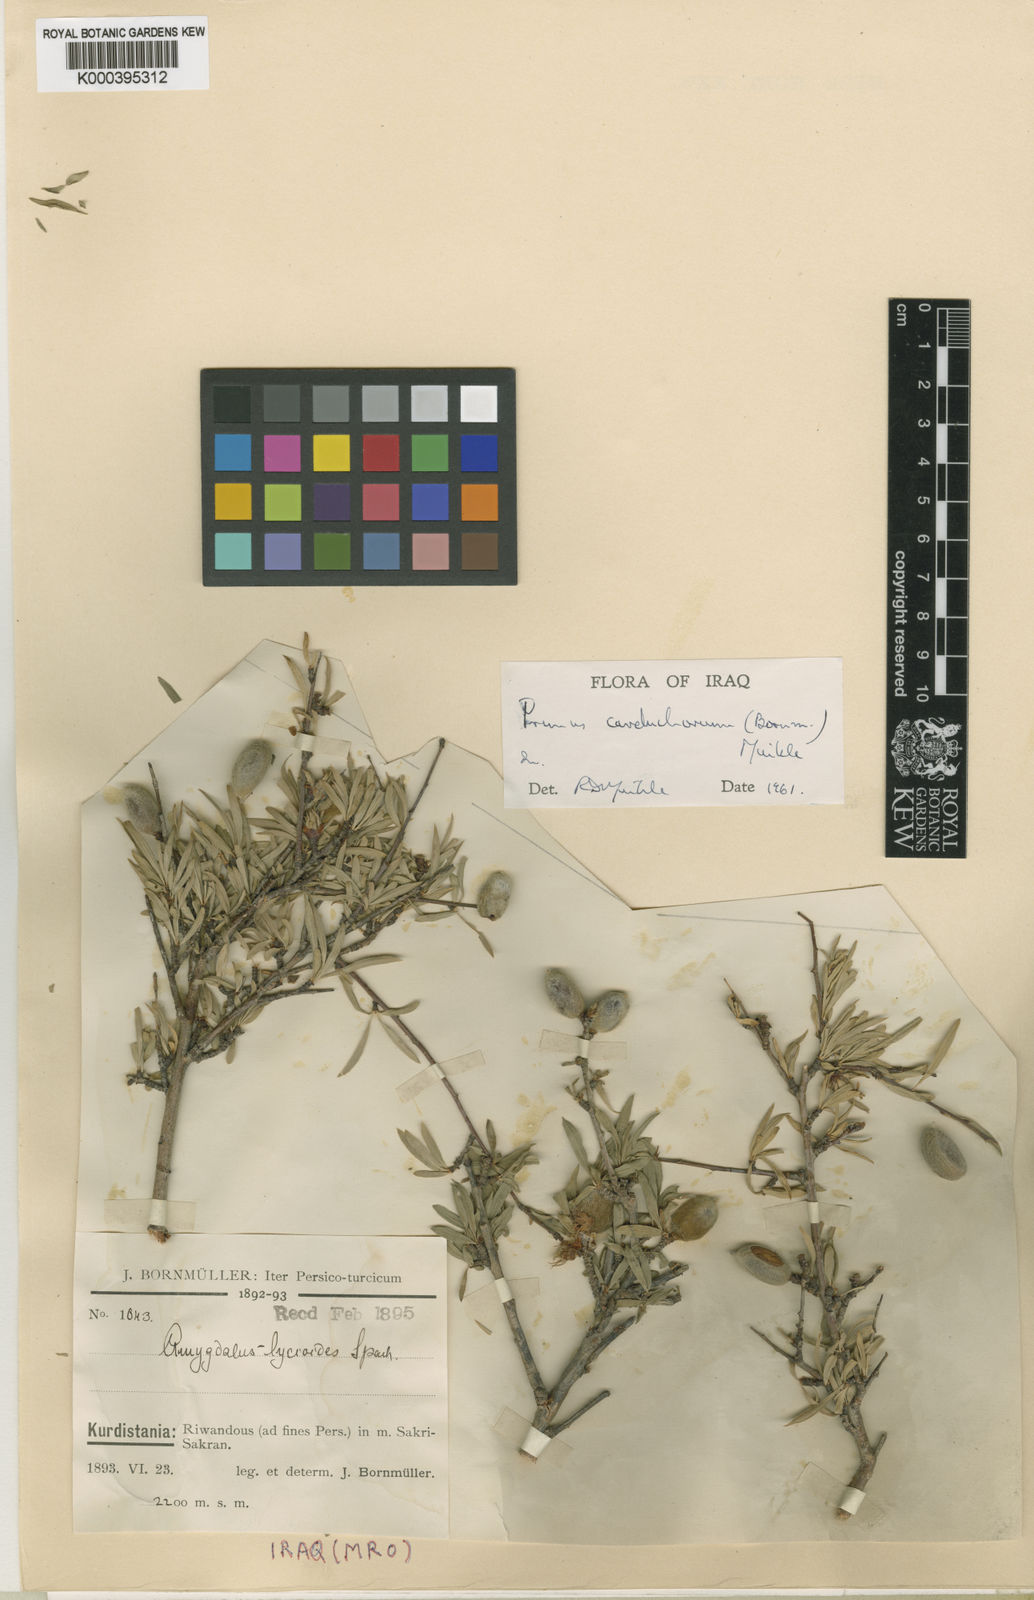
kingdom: Plantae
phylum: Tracheophyta
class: Magnoliopsida
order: Rosales
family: Rosaceae
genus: Prunus
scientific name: Prunus carduchorum
